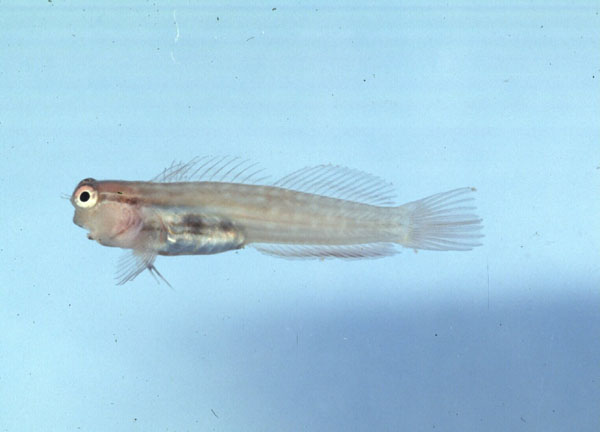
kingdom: Animalia
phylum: Chordata
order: Perciformes
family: Blenniidae
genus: Ecsenius
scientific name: Ecsenius nalolo
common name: Nalolo
